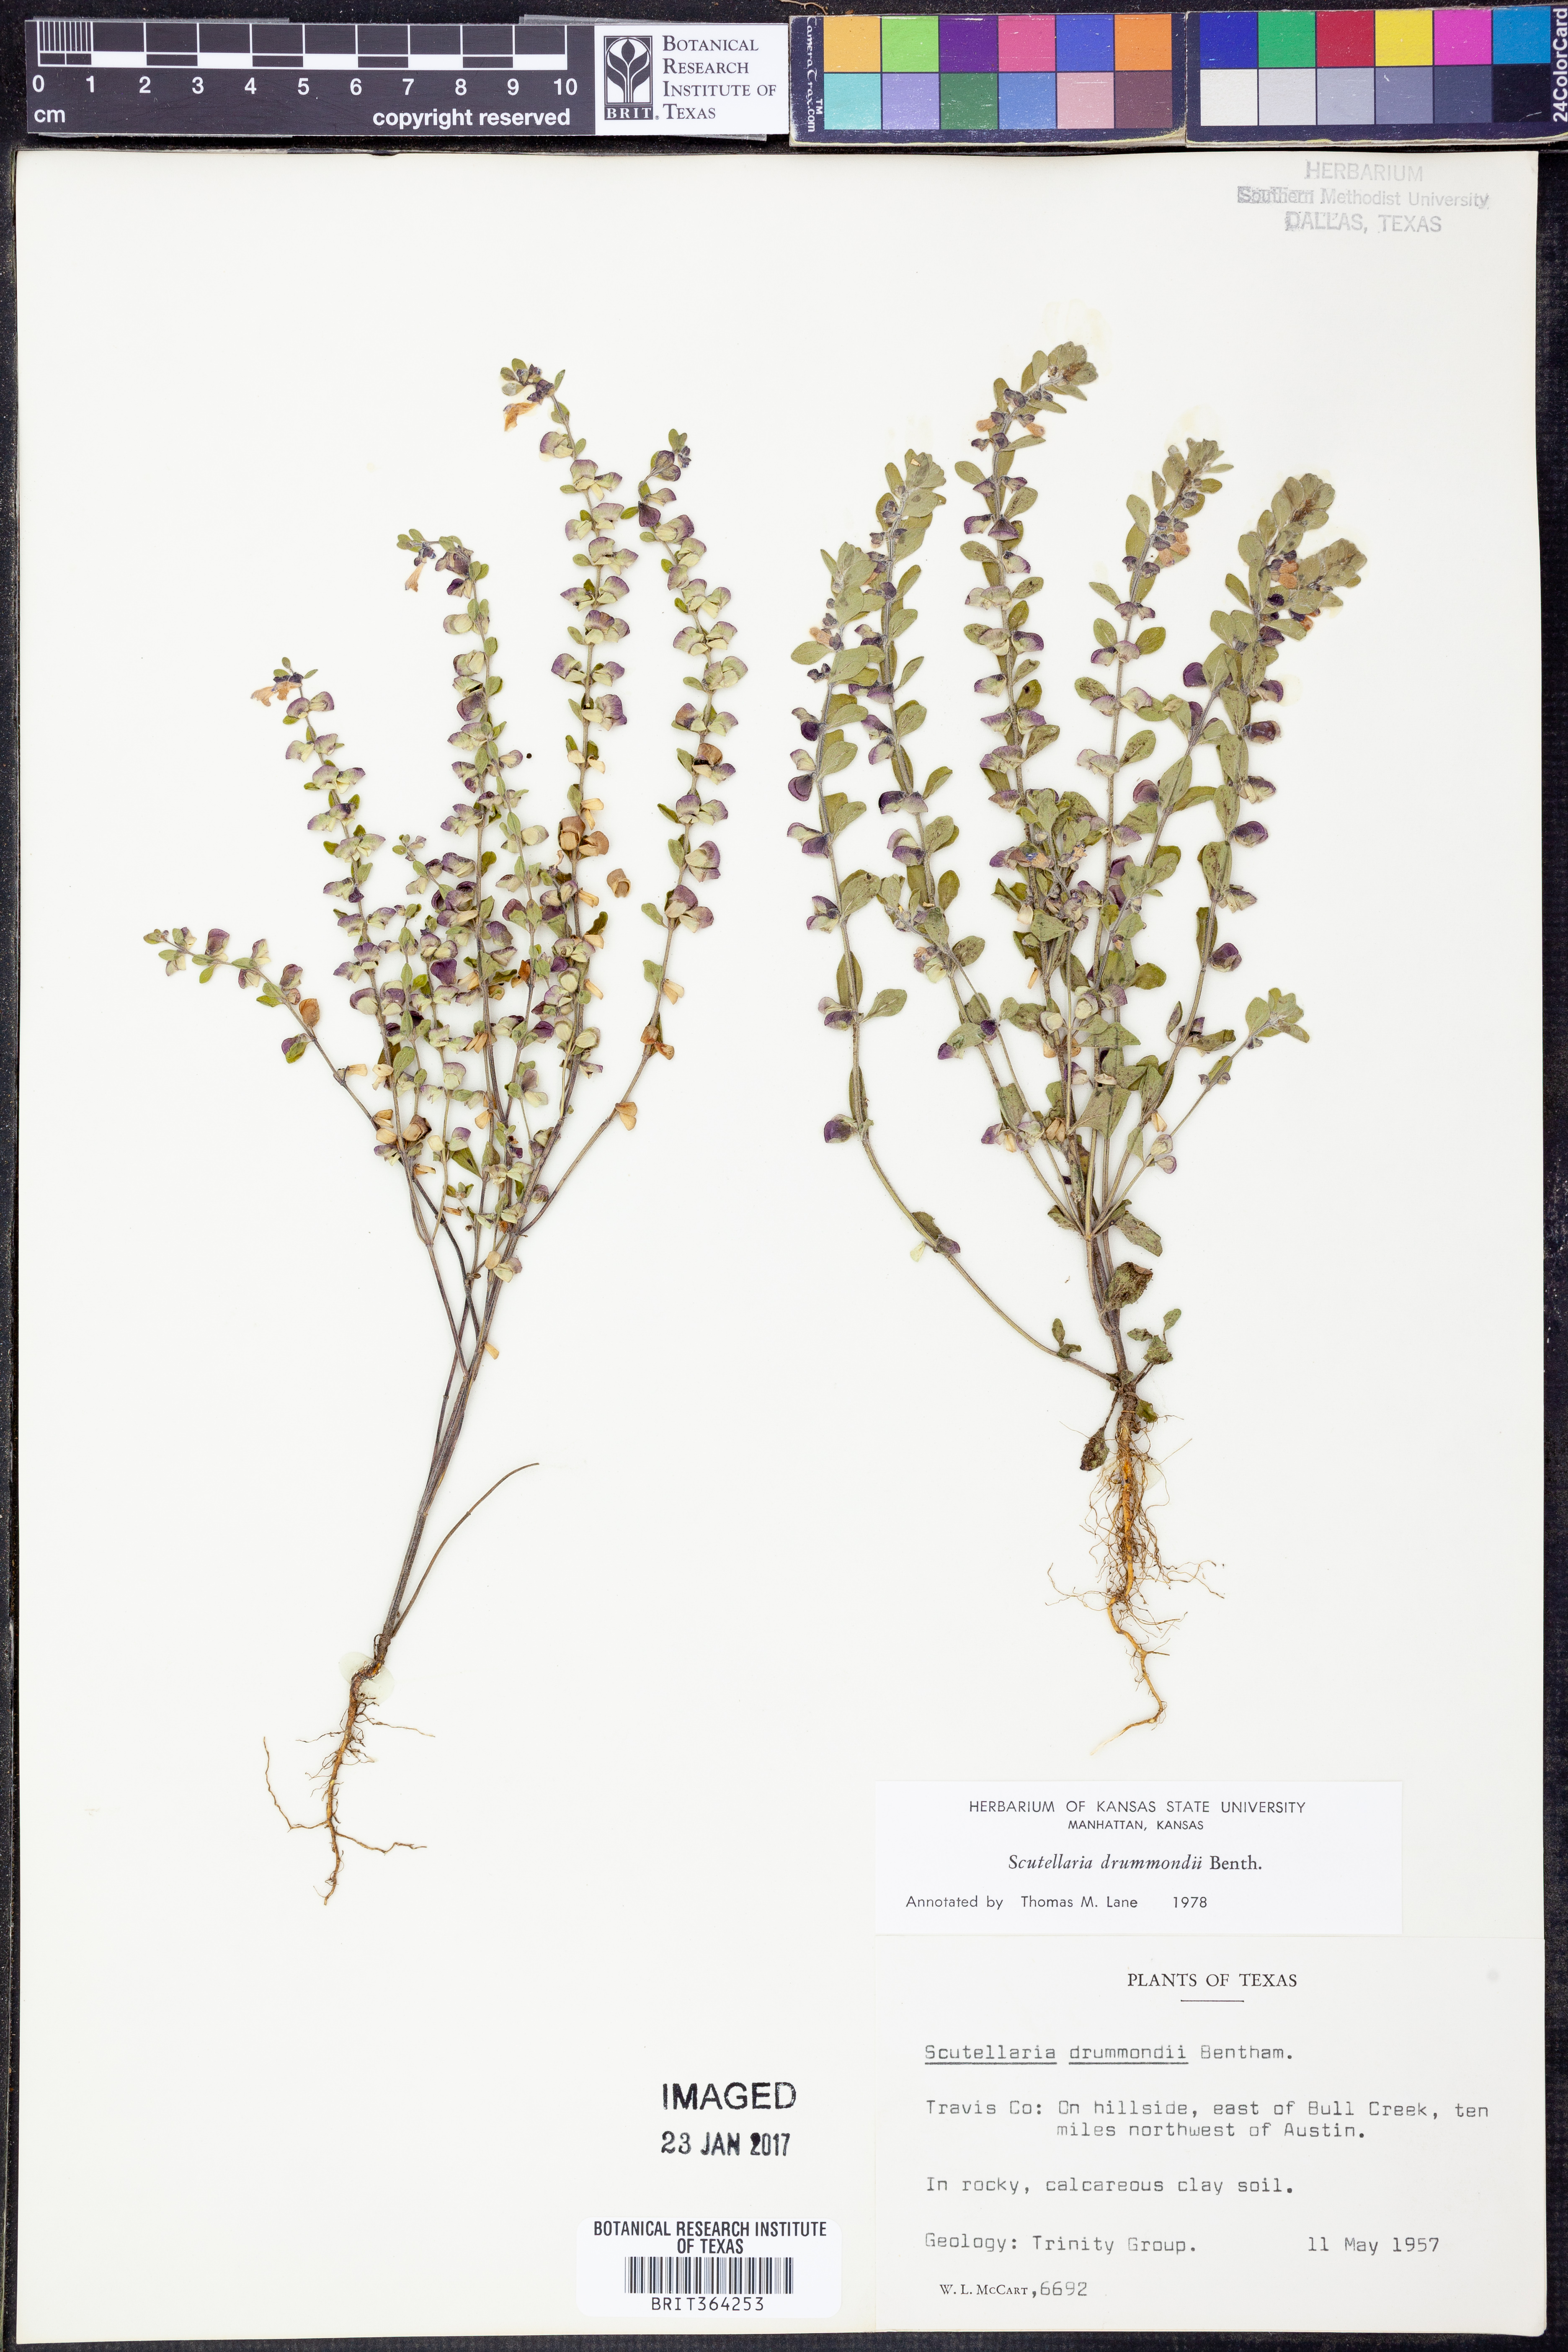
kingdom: Plantae
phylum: Tracheophyta
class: Magnoliopsida
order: Lamiales
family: Lamiaceae
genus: Scutellaria
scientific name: Scutellaria drummondii
